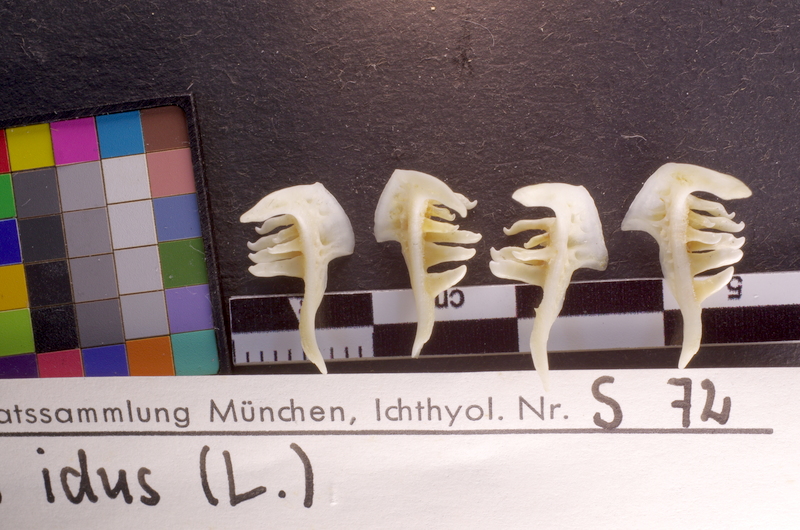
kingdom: Animalia
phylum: Chordata
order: Cypriniformes
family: Cyprinidae
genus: Leuciscus
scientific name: Leuciscus idus
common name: Ide
